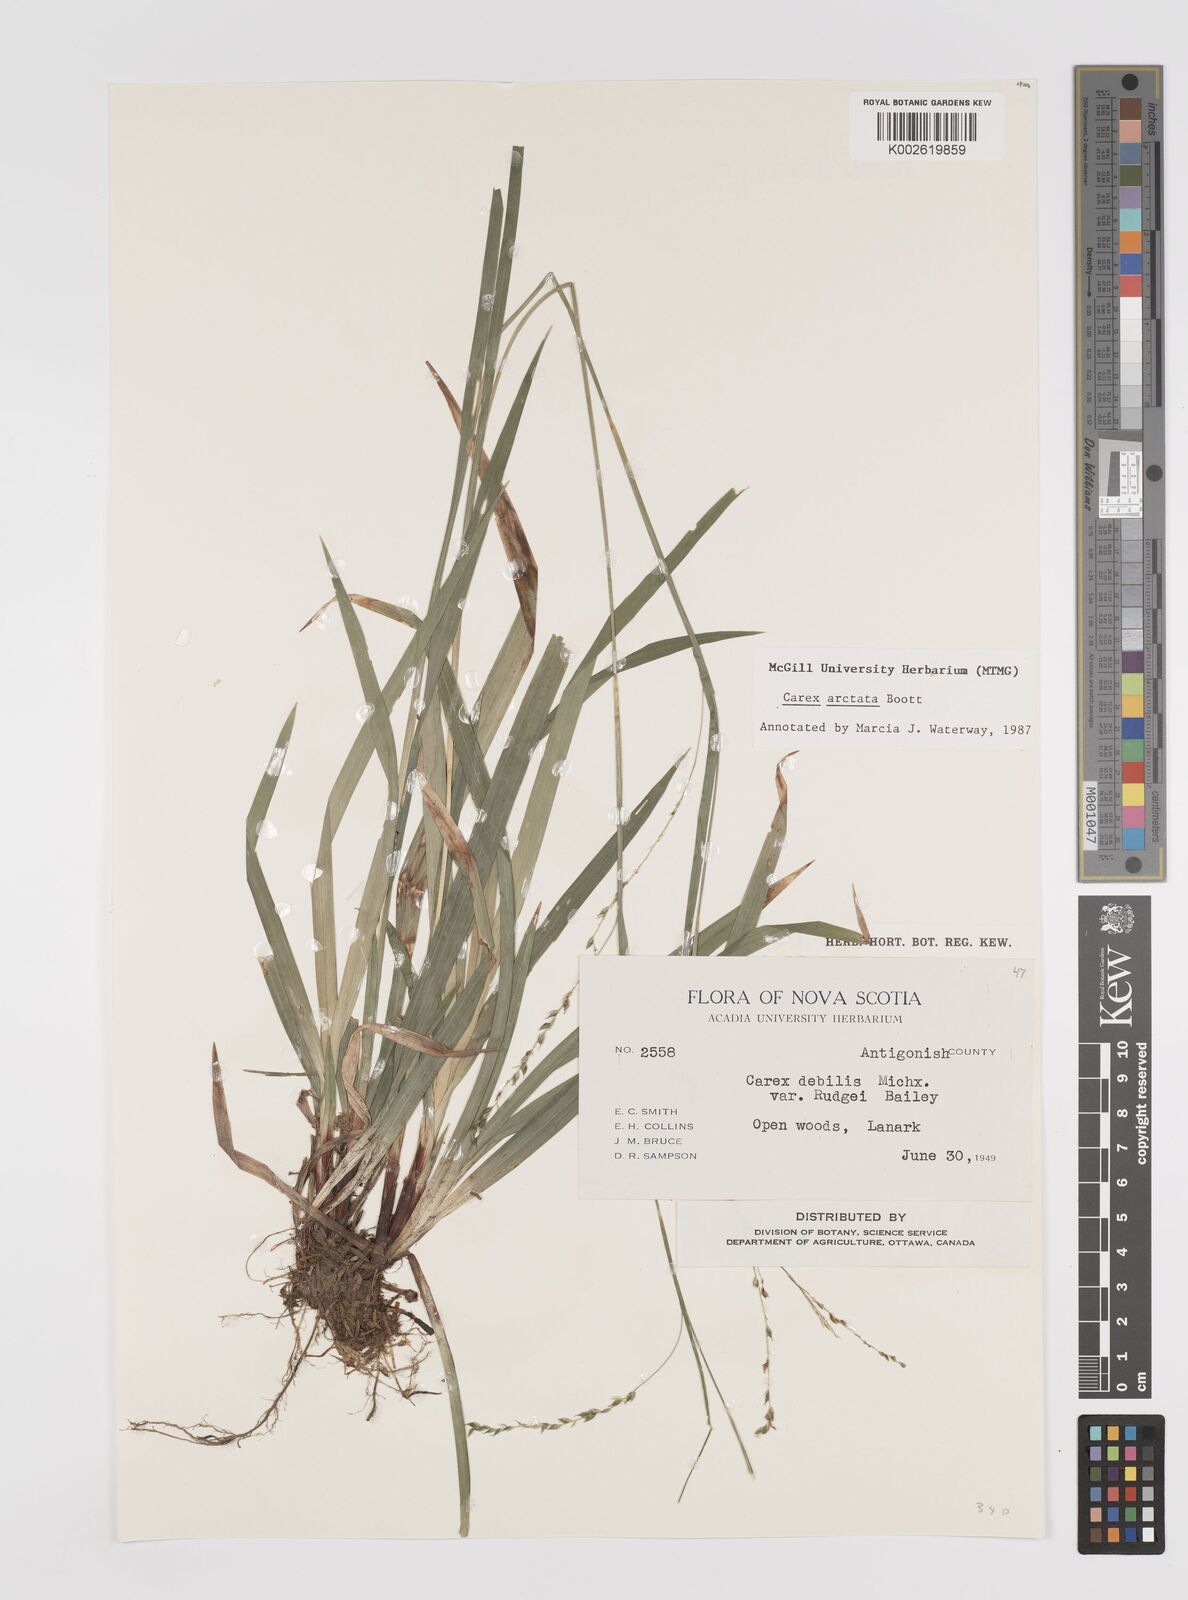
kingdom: Plantae
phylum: Tracheophyta
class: Liliopsida
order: Poales
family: Cyperaceae
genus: Carex
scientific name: Carex arctata
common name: Black sedge
